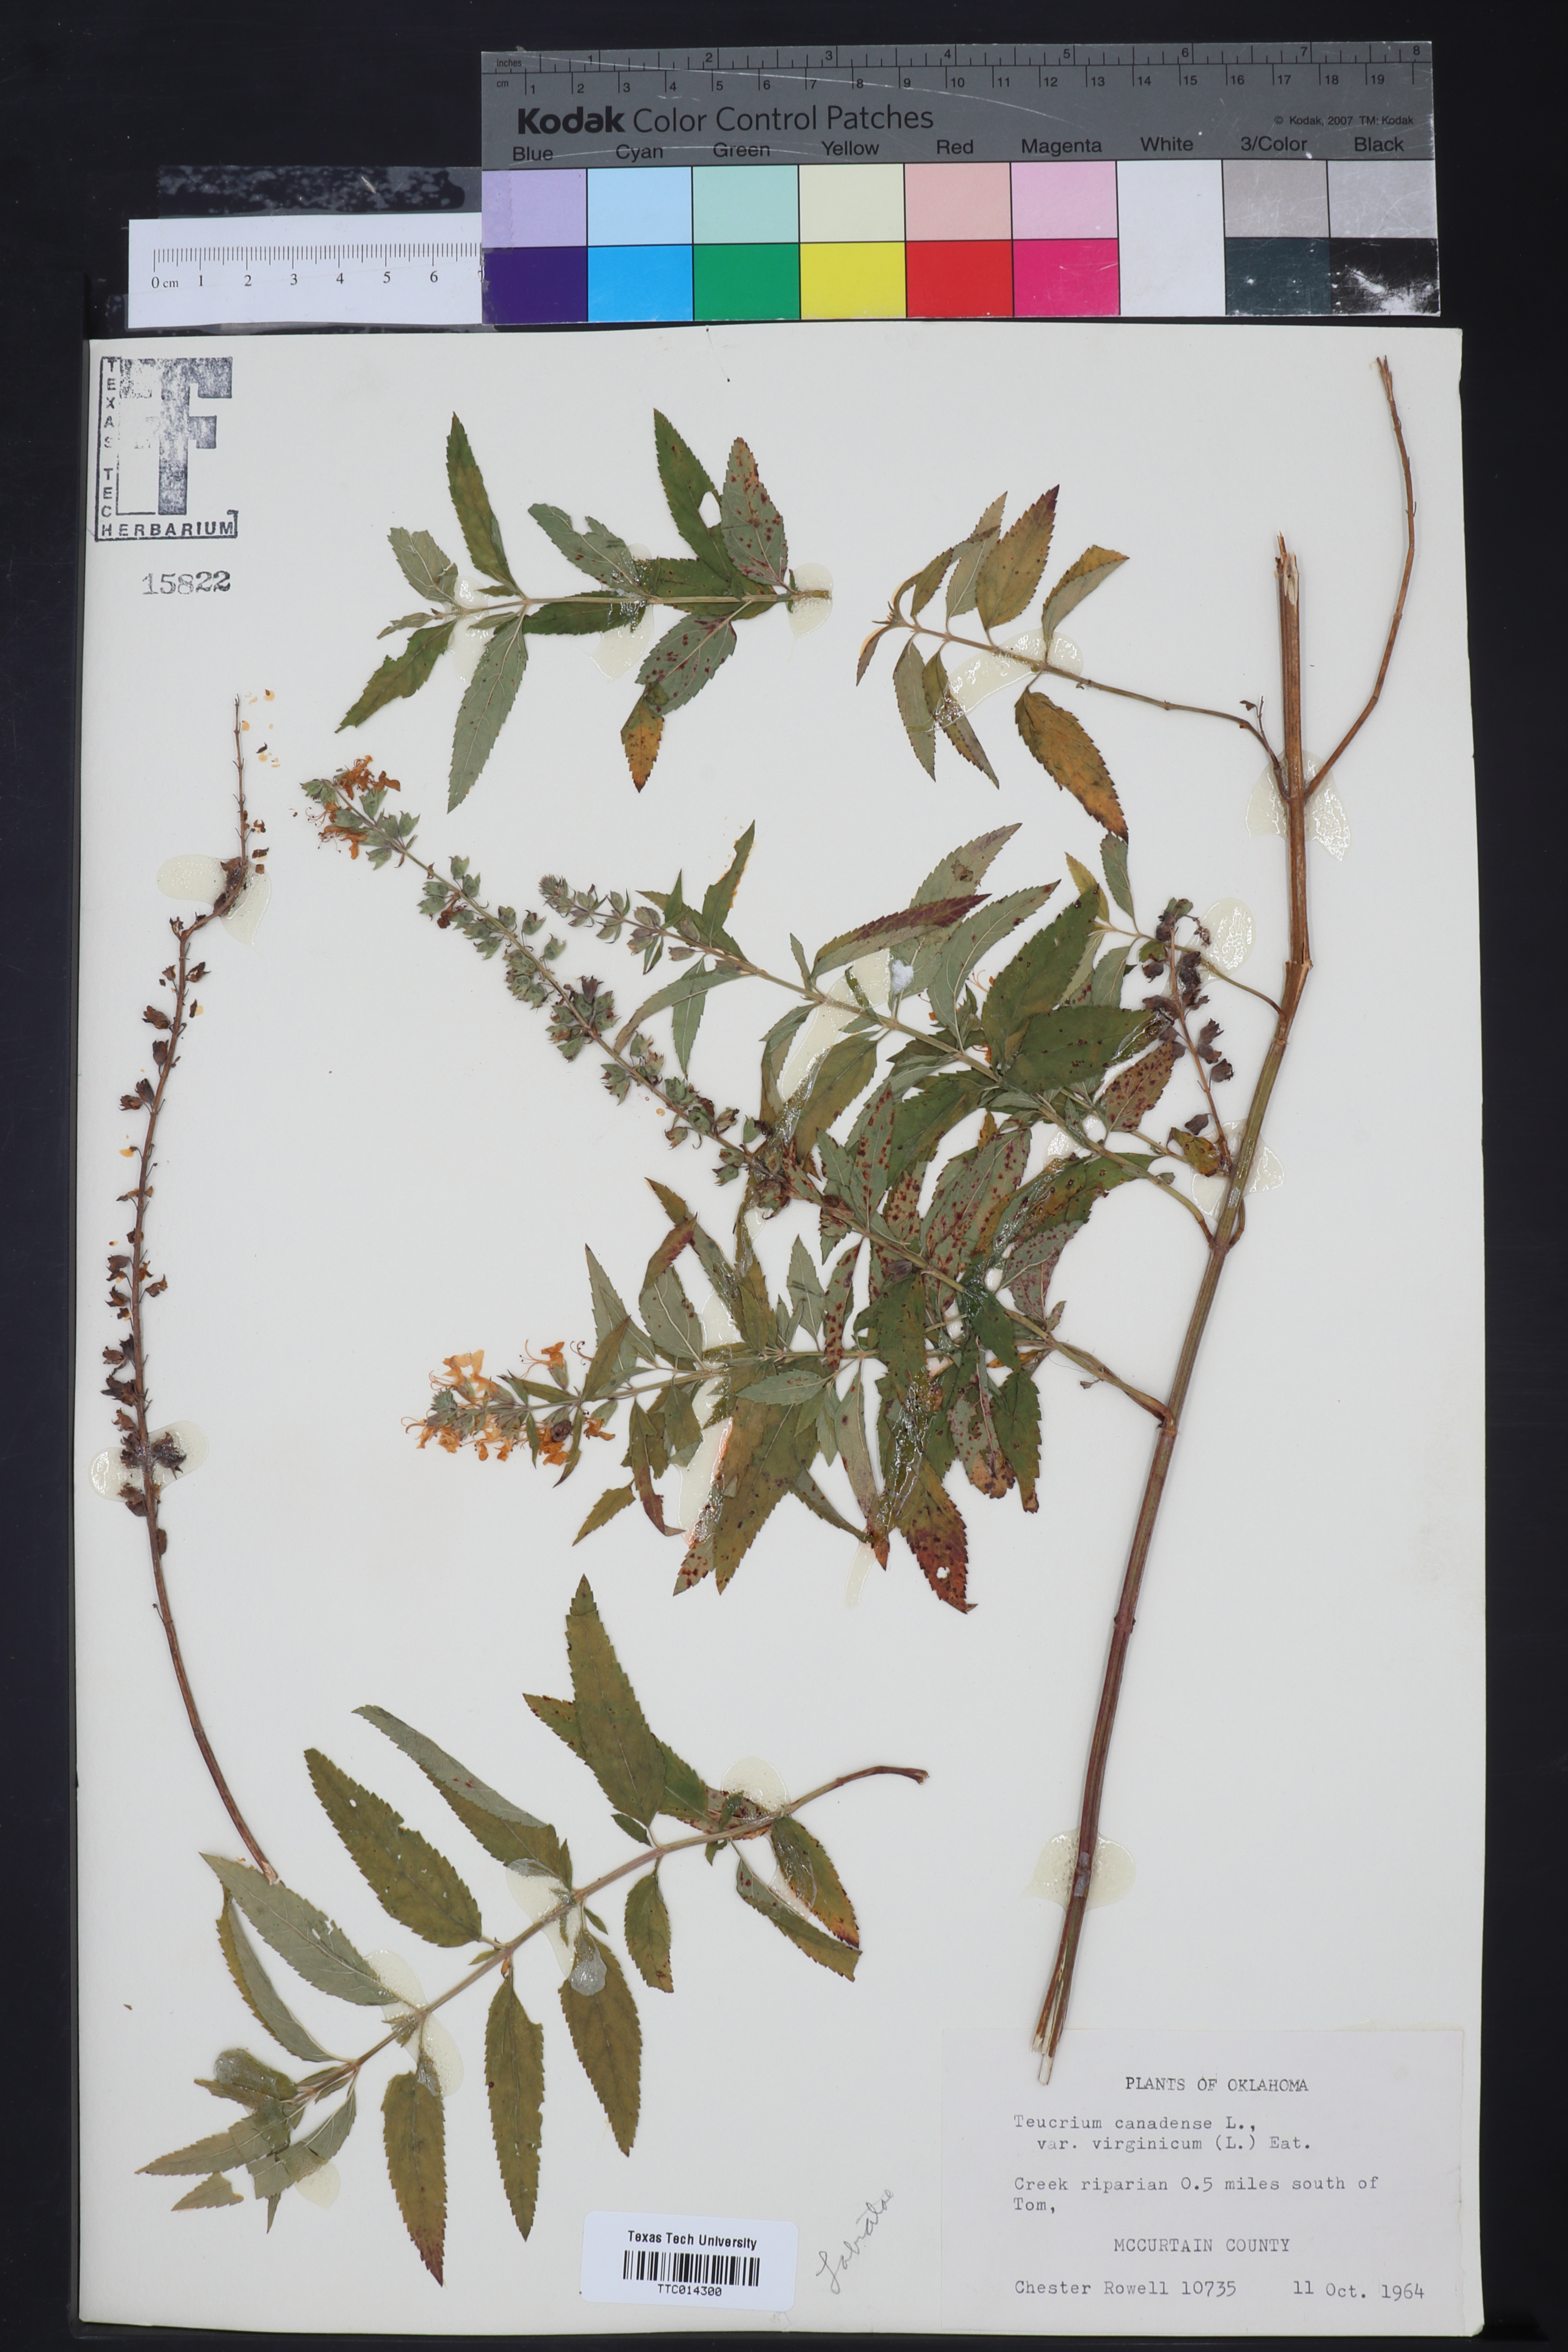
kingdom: Plantae
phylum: Tracheophyta
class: Magnoliopsida
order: Lamiales
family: Lamiaceae
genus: Teucrium
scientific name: Teucrium canadense
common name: American germander
